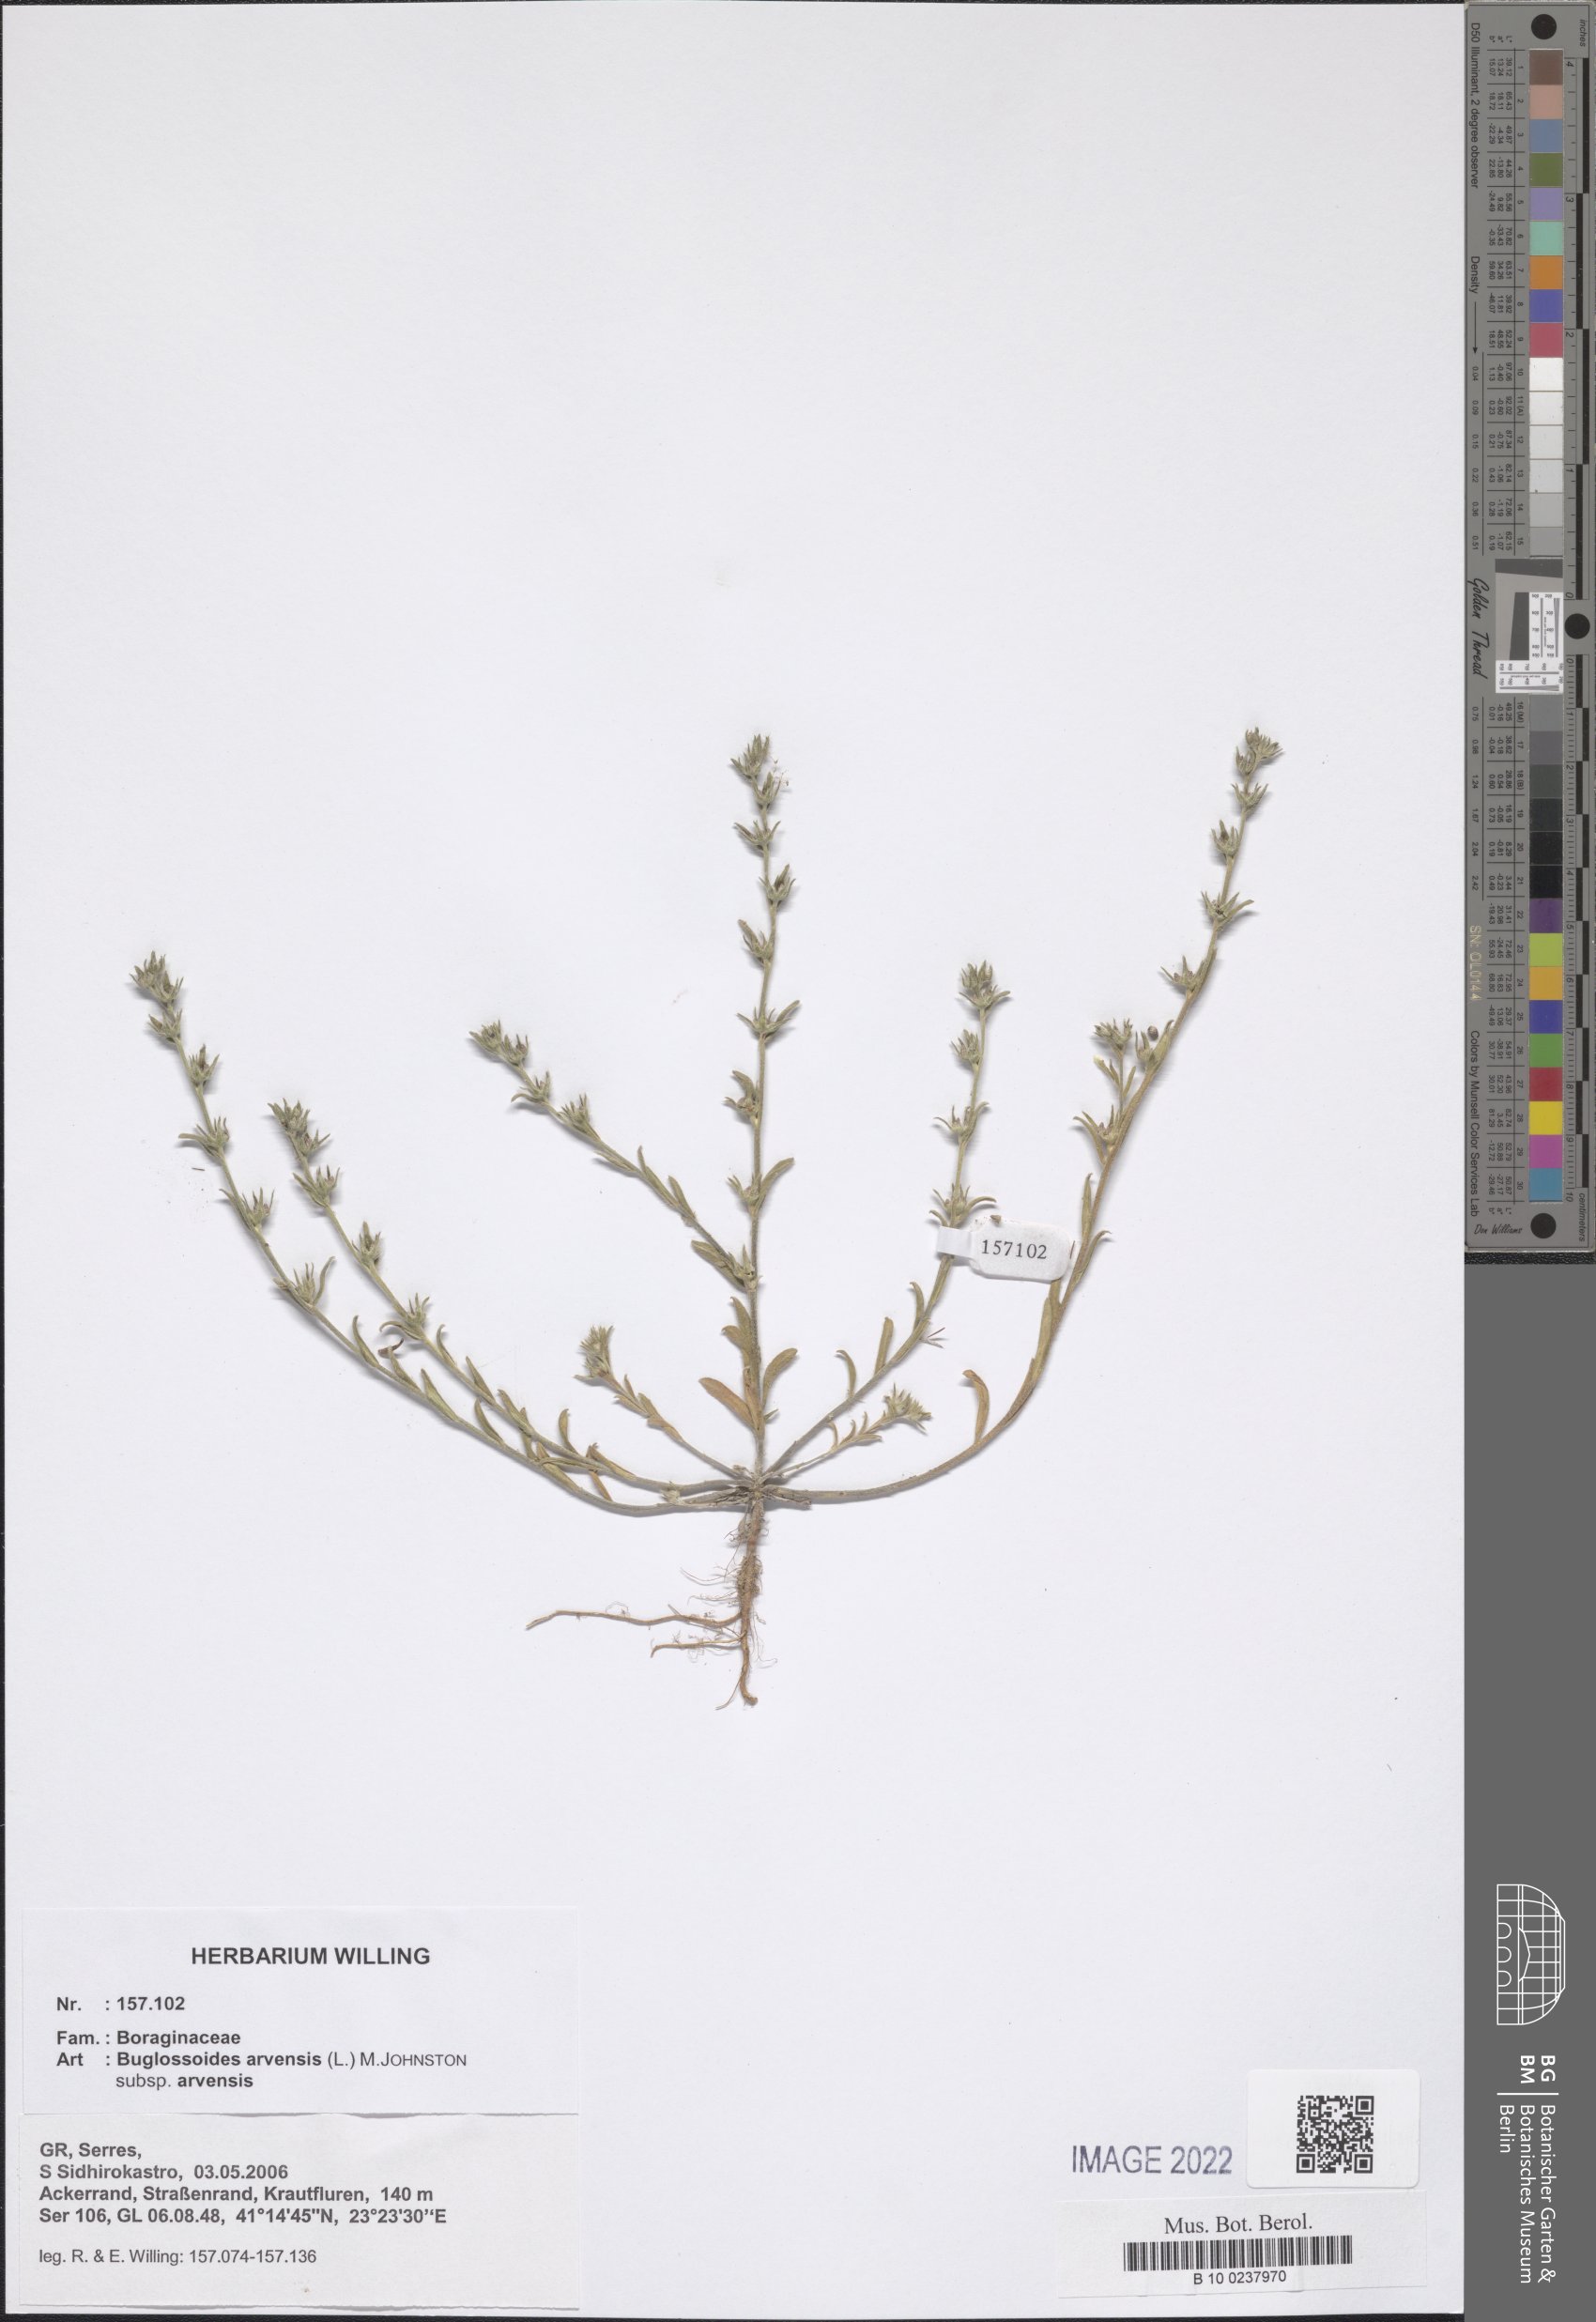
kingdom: Plantae
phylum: Tracheophyta
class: Magnoliopsida
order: Boraginales
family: Boraginaceae
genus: Buglossoides
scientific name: Buglossoides arvensis
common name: Corn gromwell
